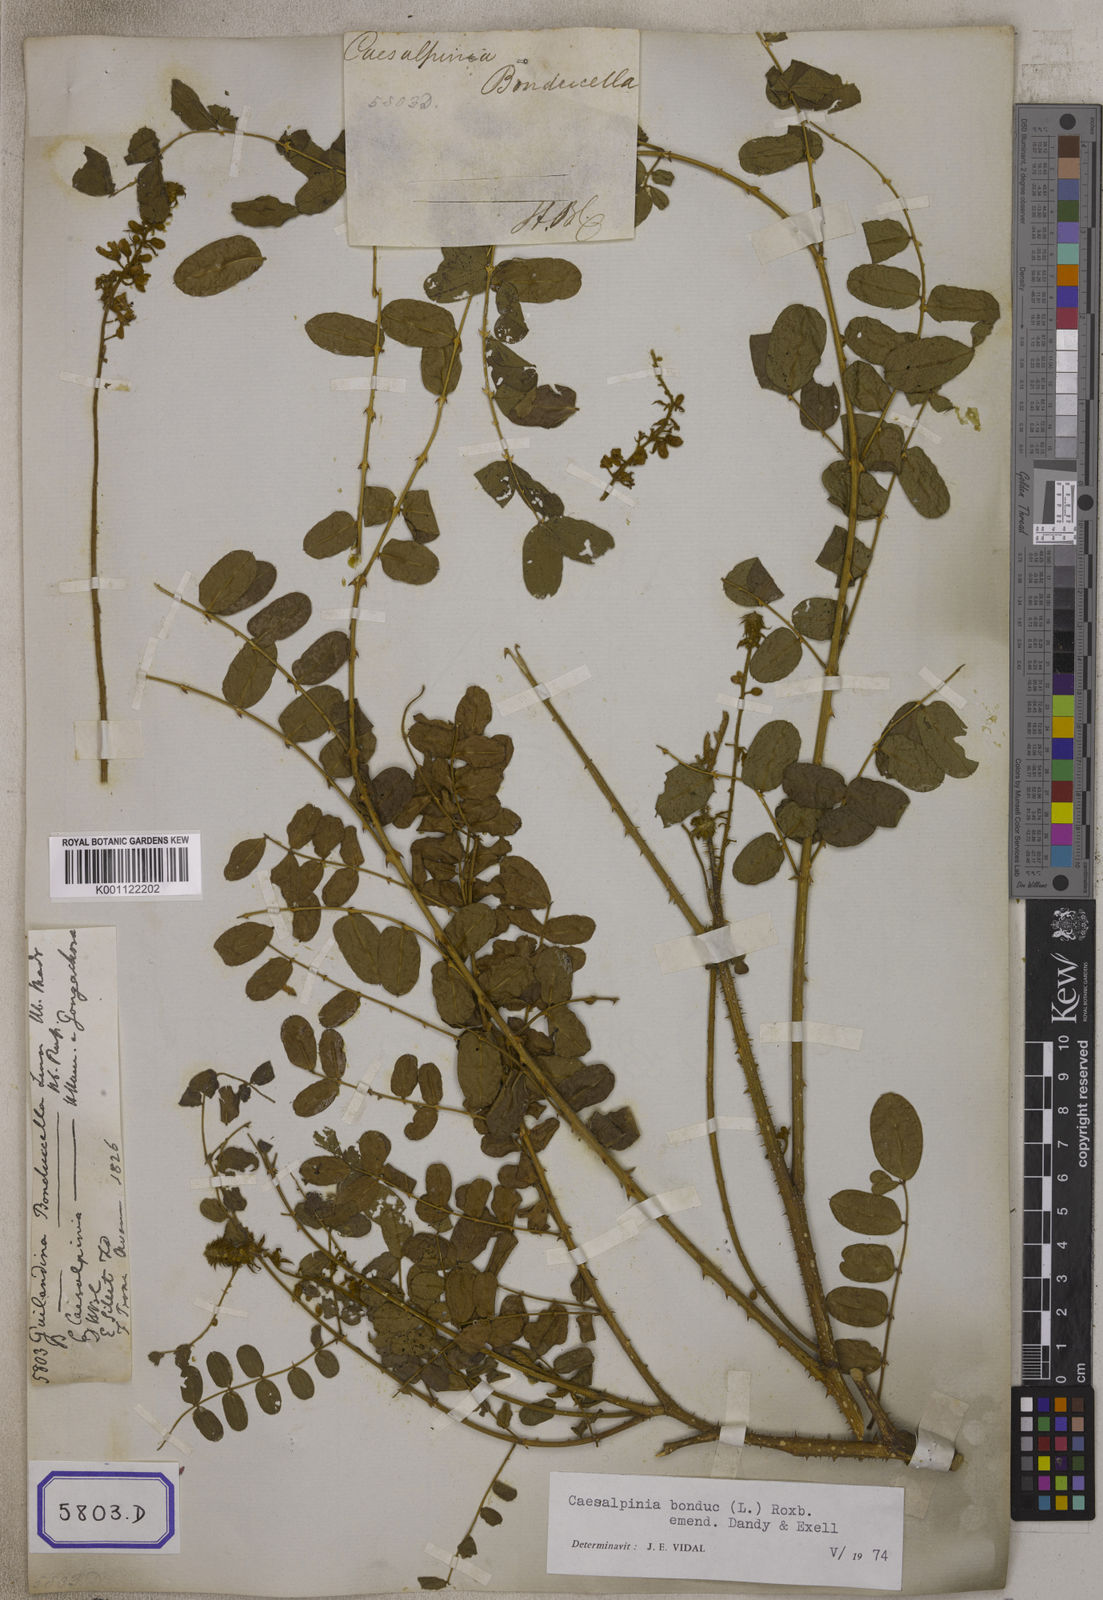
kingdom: Plantae
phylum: Tracheophyta
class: Magnoliopsida
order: Fabales
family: Fabaceae
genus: Guilandina
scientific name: Guilandina bonduc
